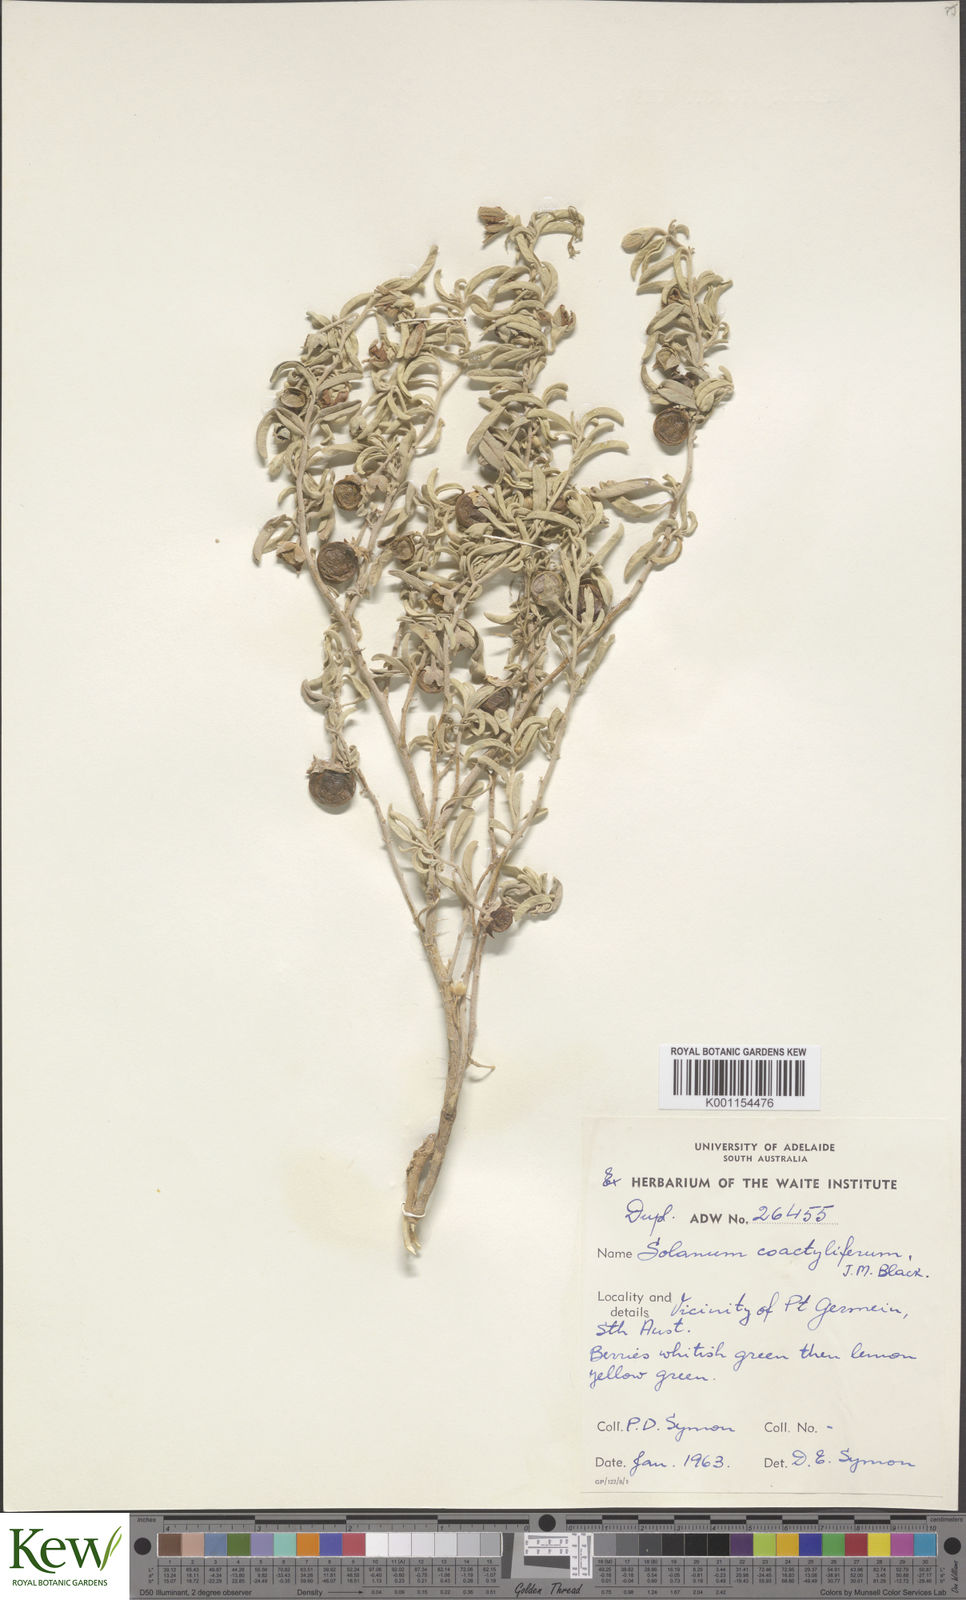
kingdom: Plantae
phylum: Tracheophyta
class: Magnoliopsida
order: Solanales
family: Solanaceae
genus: Solanum
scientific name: Solanum coactiliferum
